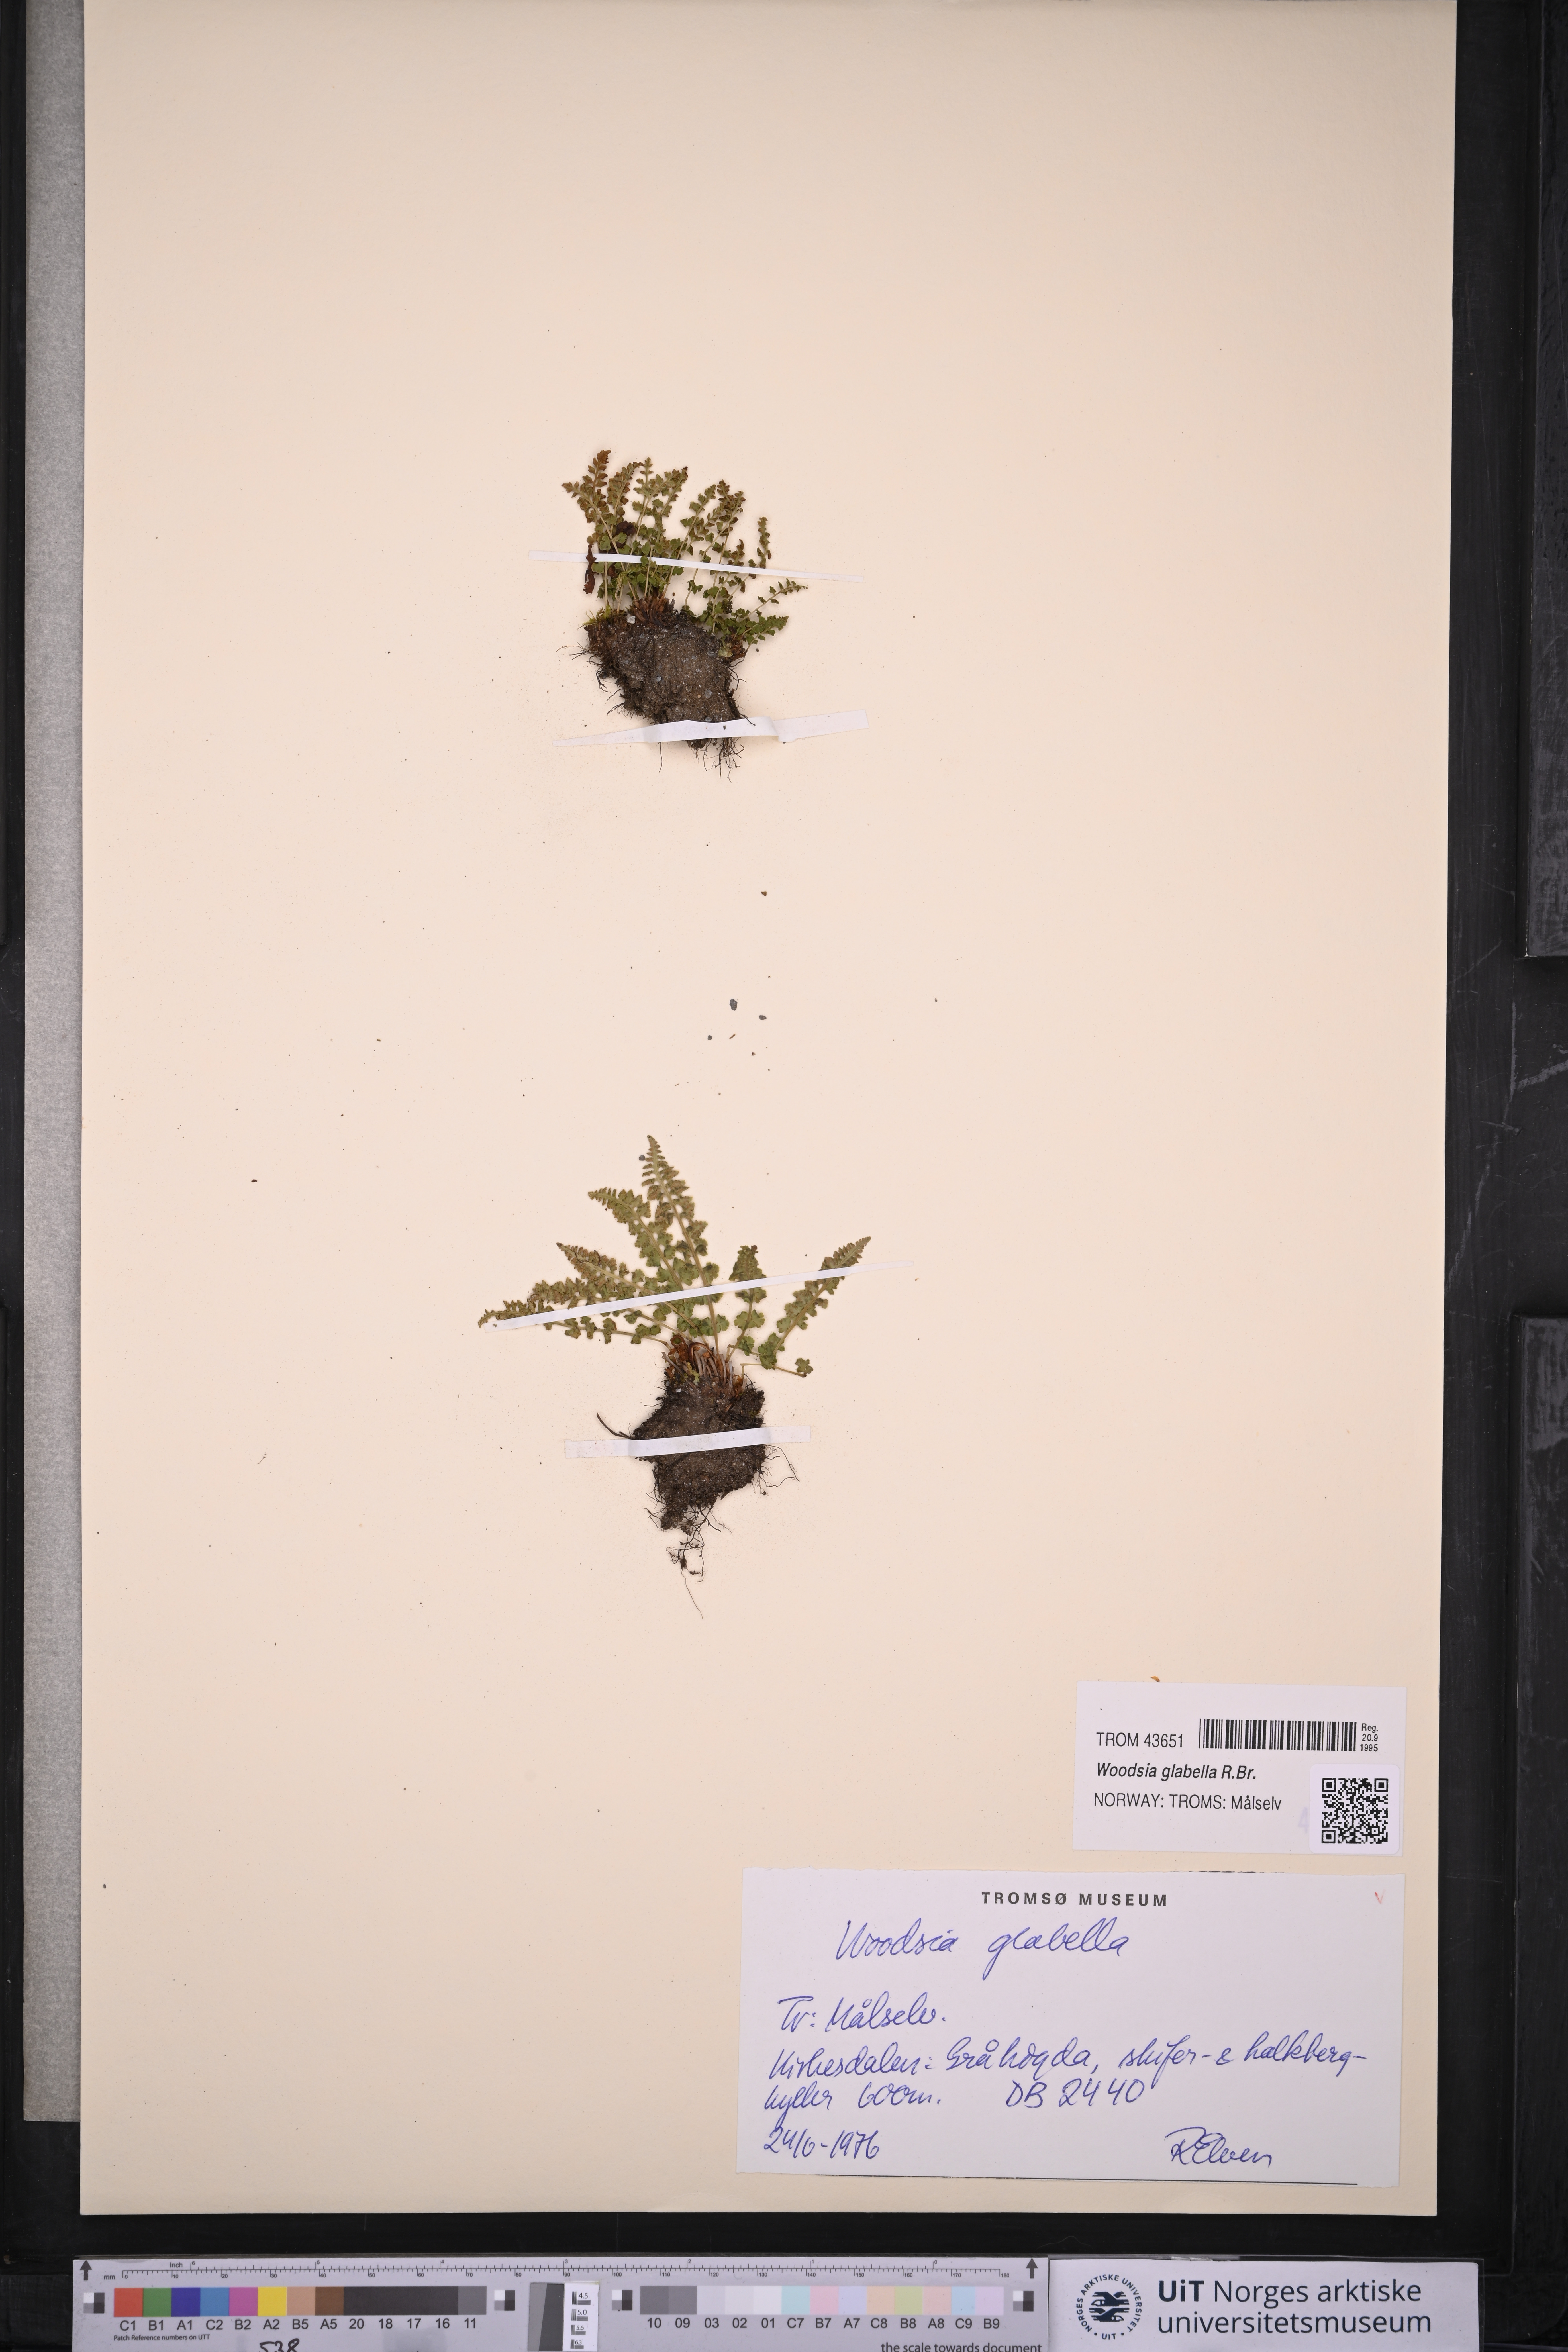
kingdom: Plantae
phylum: Tracheophyta
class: Polypodiopsida
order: Polypodiales
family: Woodsiaceae
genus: Woodsia
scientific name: Woodsia glabella
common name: Smooth woodsia
